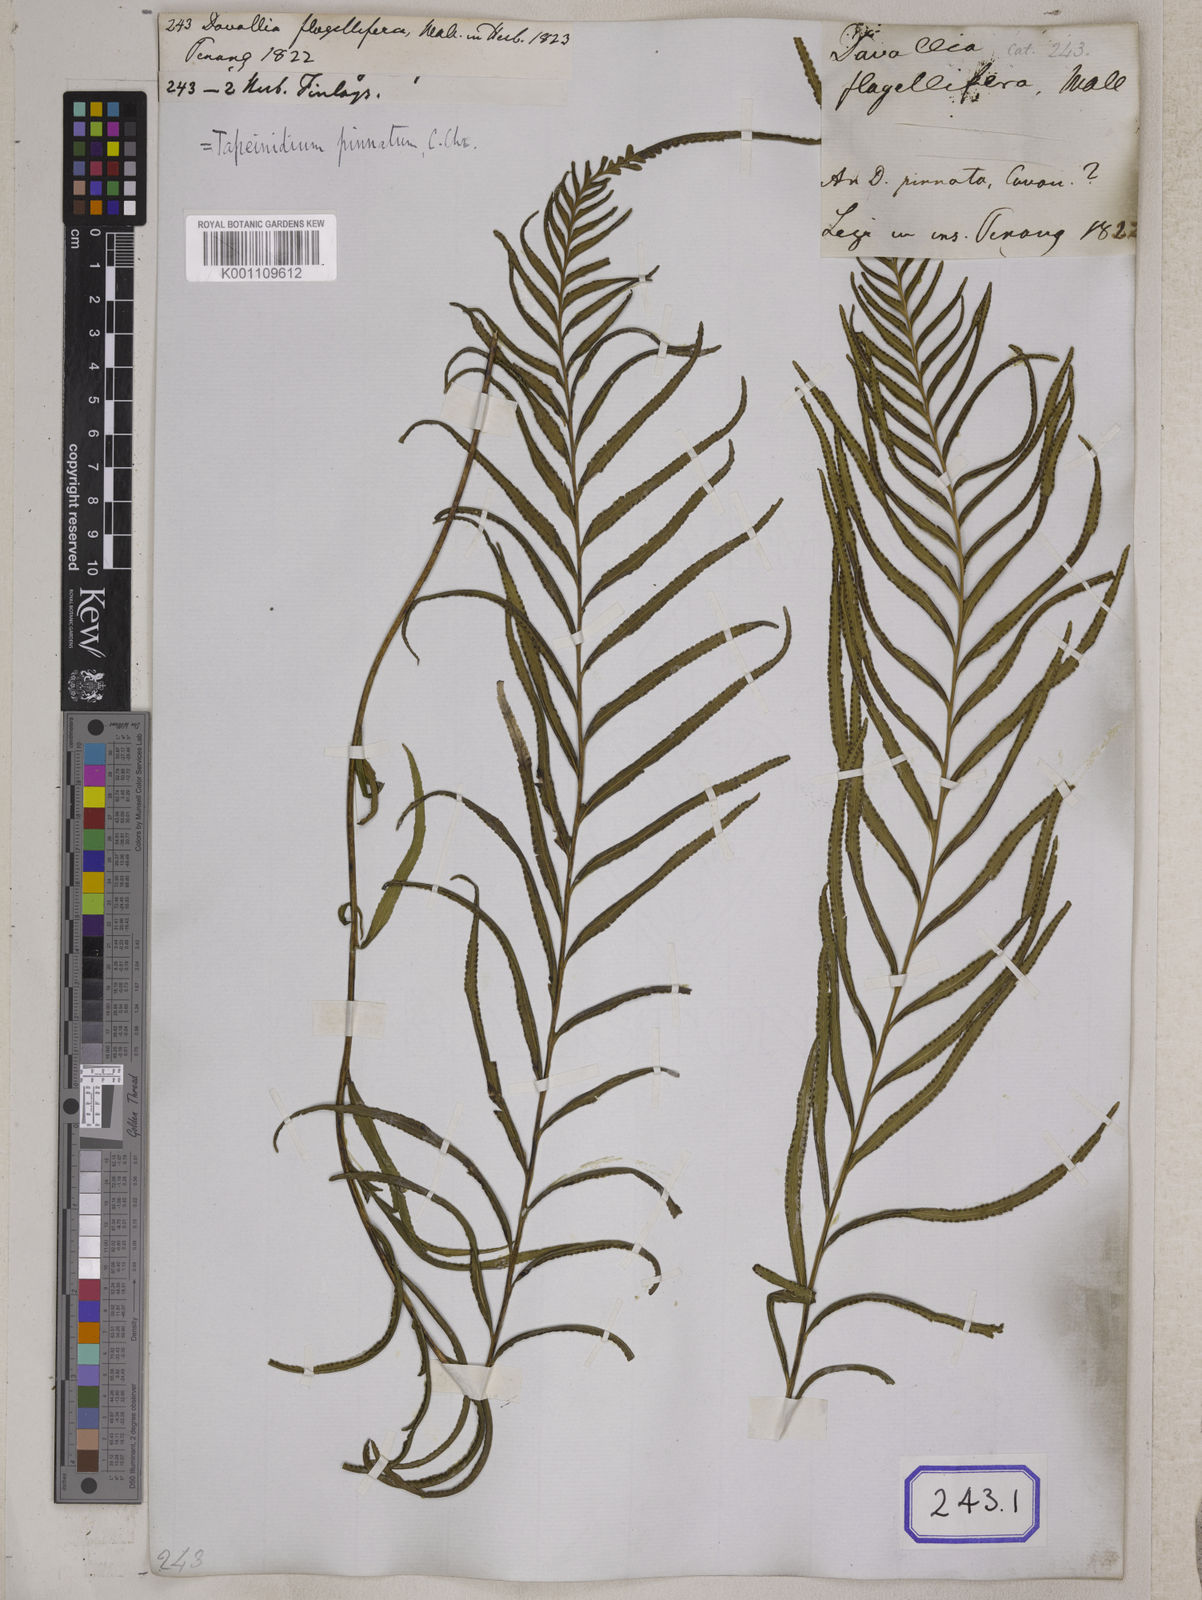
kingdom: Plantae
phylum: Tracheophyta
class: Polypodiopsida
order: Polypodiales
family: Lindsaeaceae
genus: Tapeinidium
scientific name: Tapeinidium pinnatum
